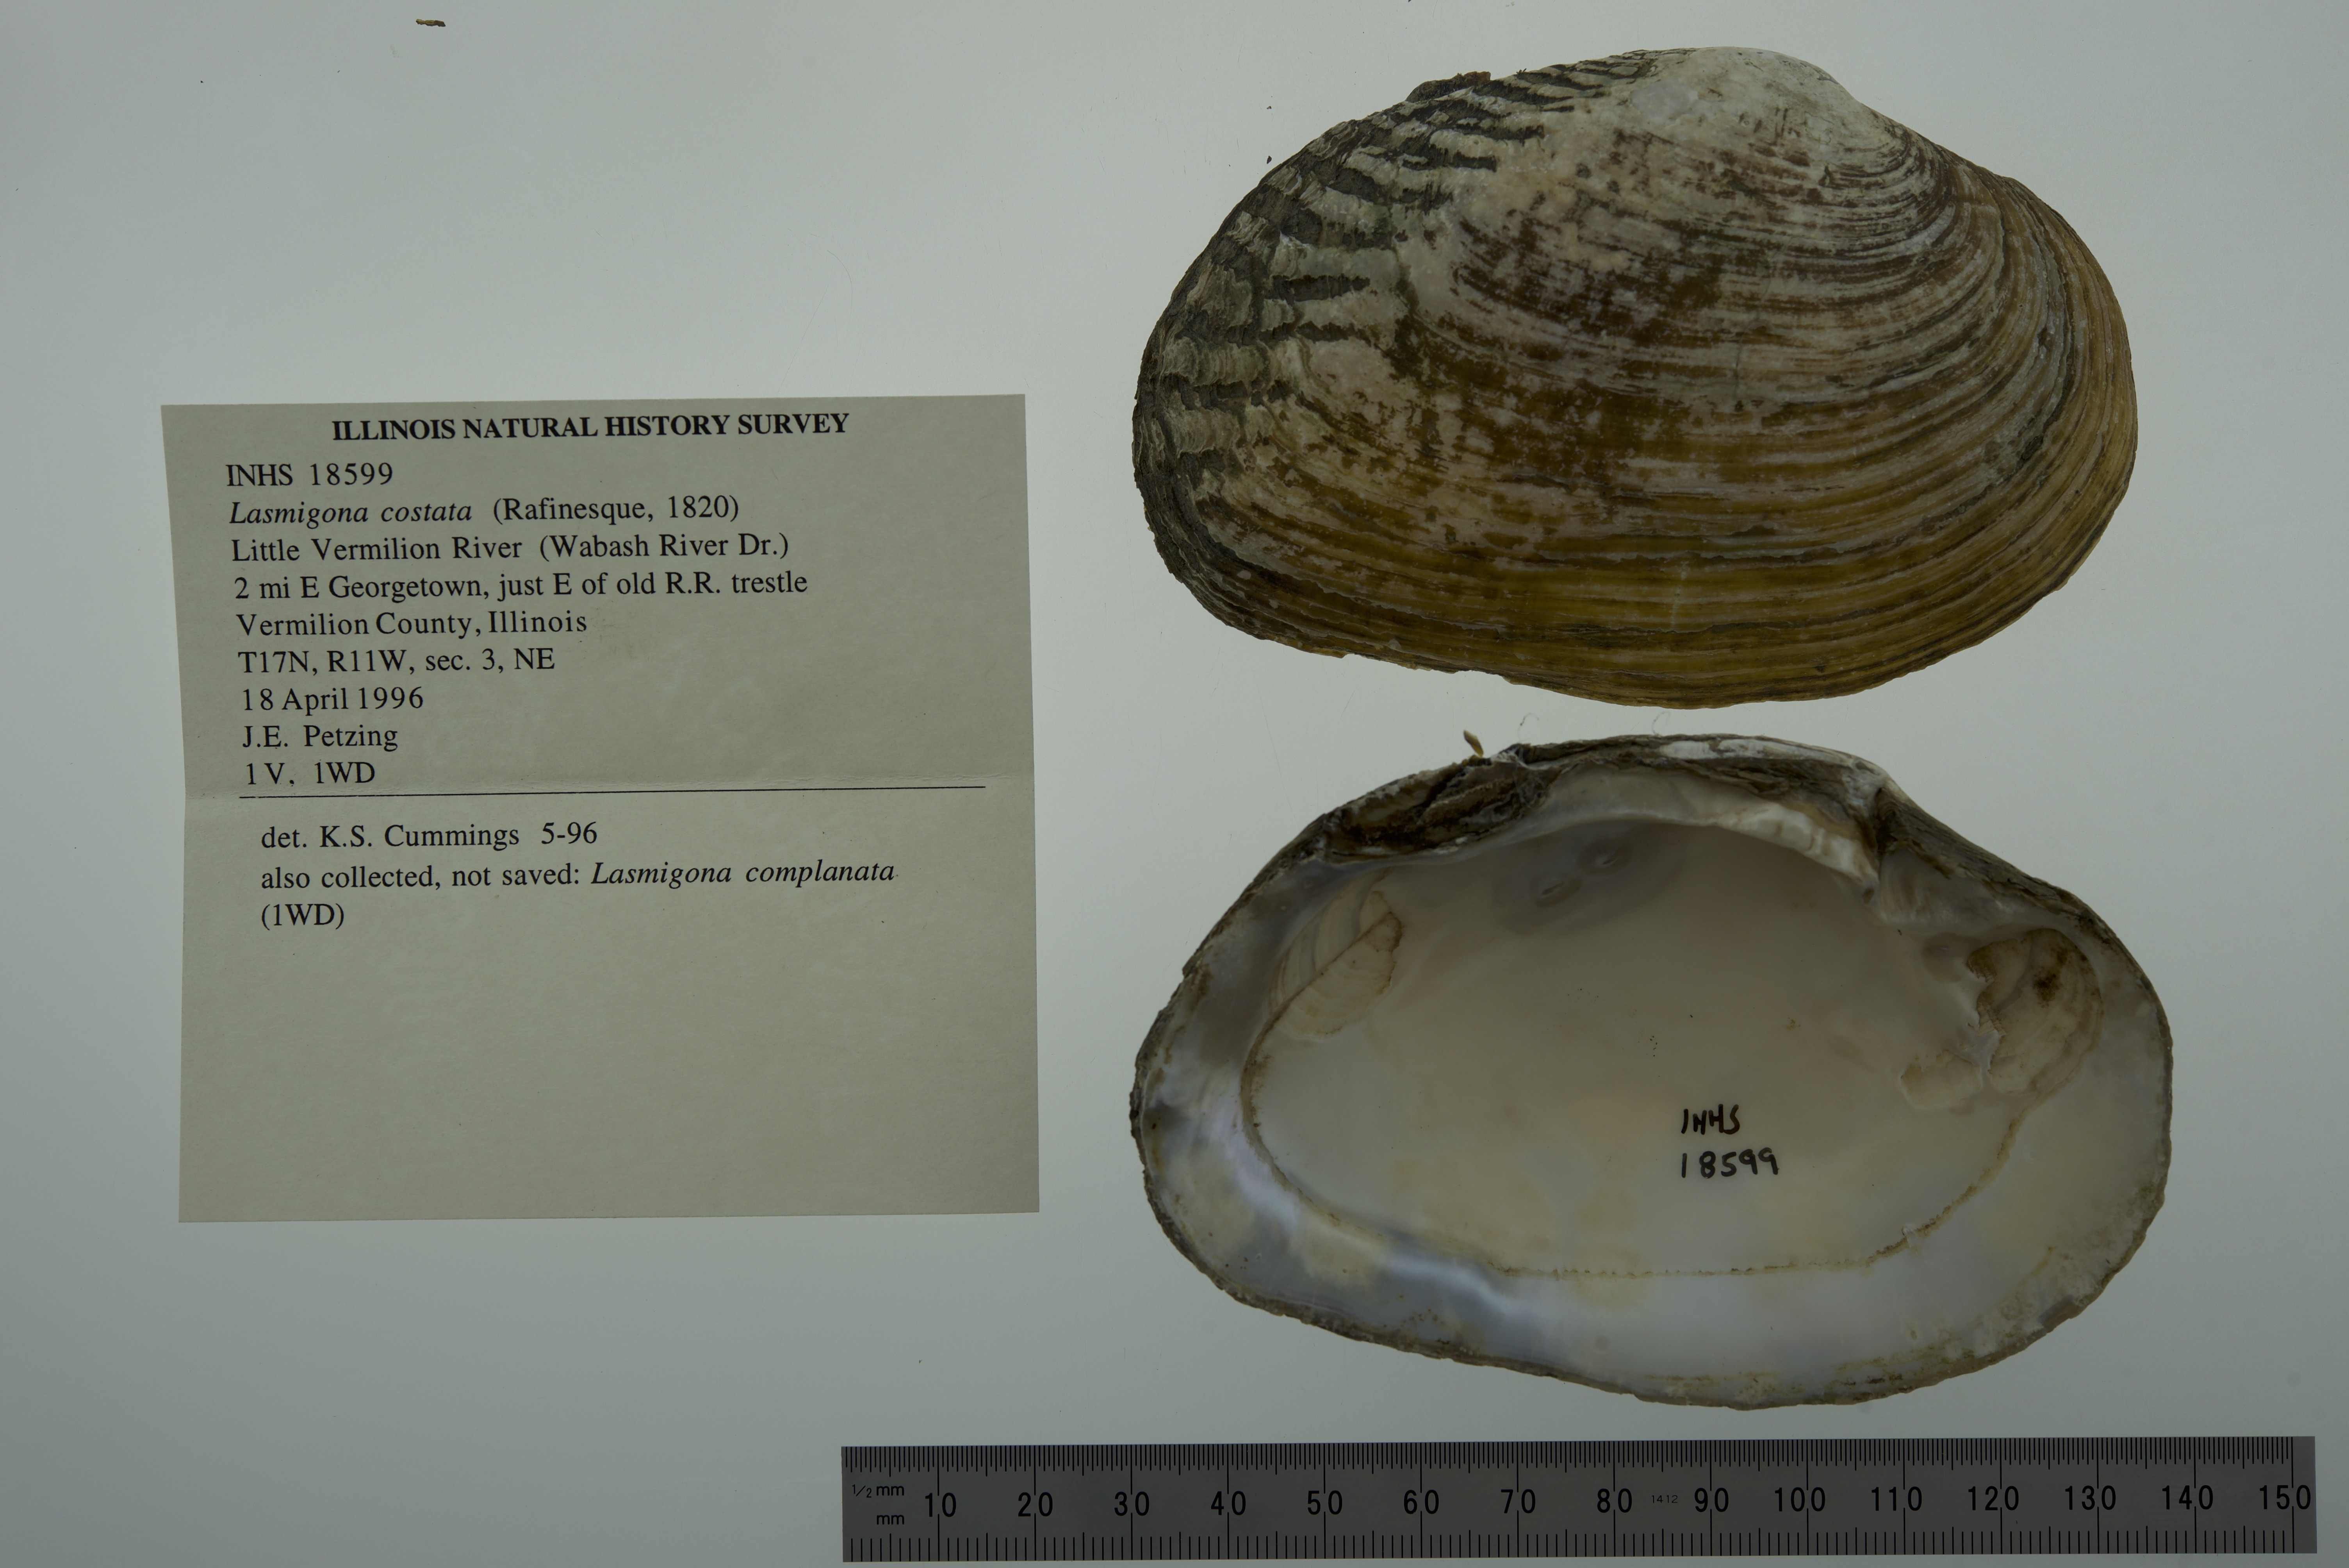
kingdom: Animalia
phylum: Mollusca
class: Bivalvia
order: Unionida
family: Unionidae
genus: Lasmigona
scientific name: Lasmigona costata
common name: Flutedshell
